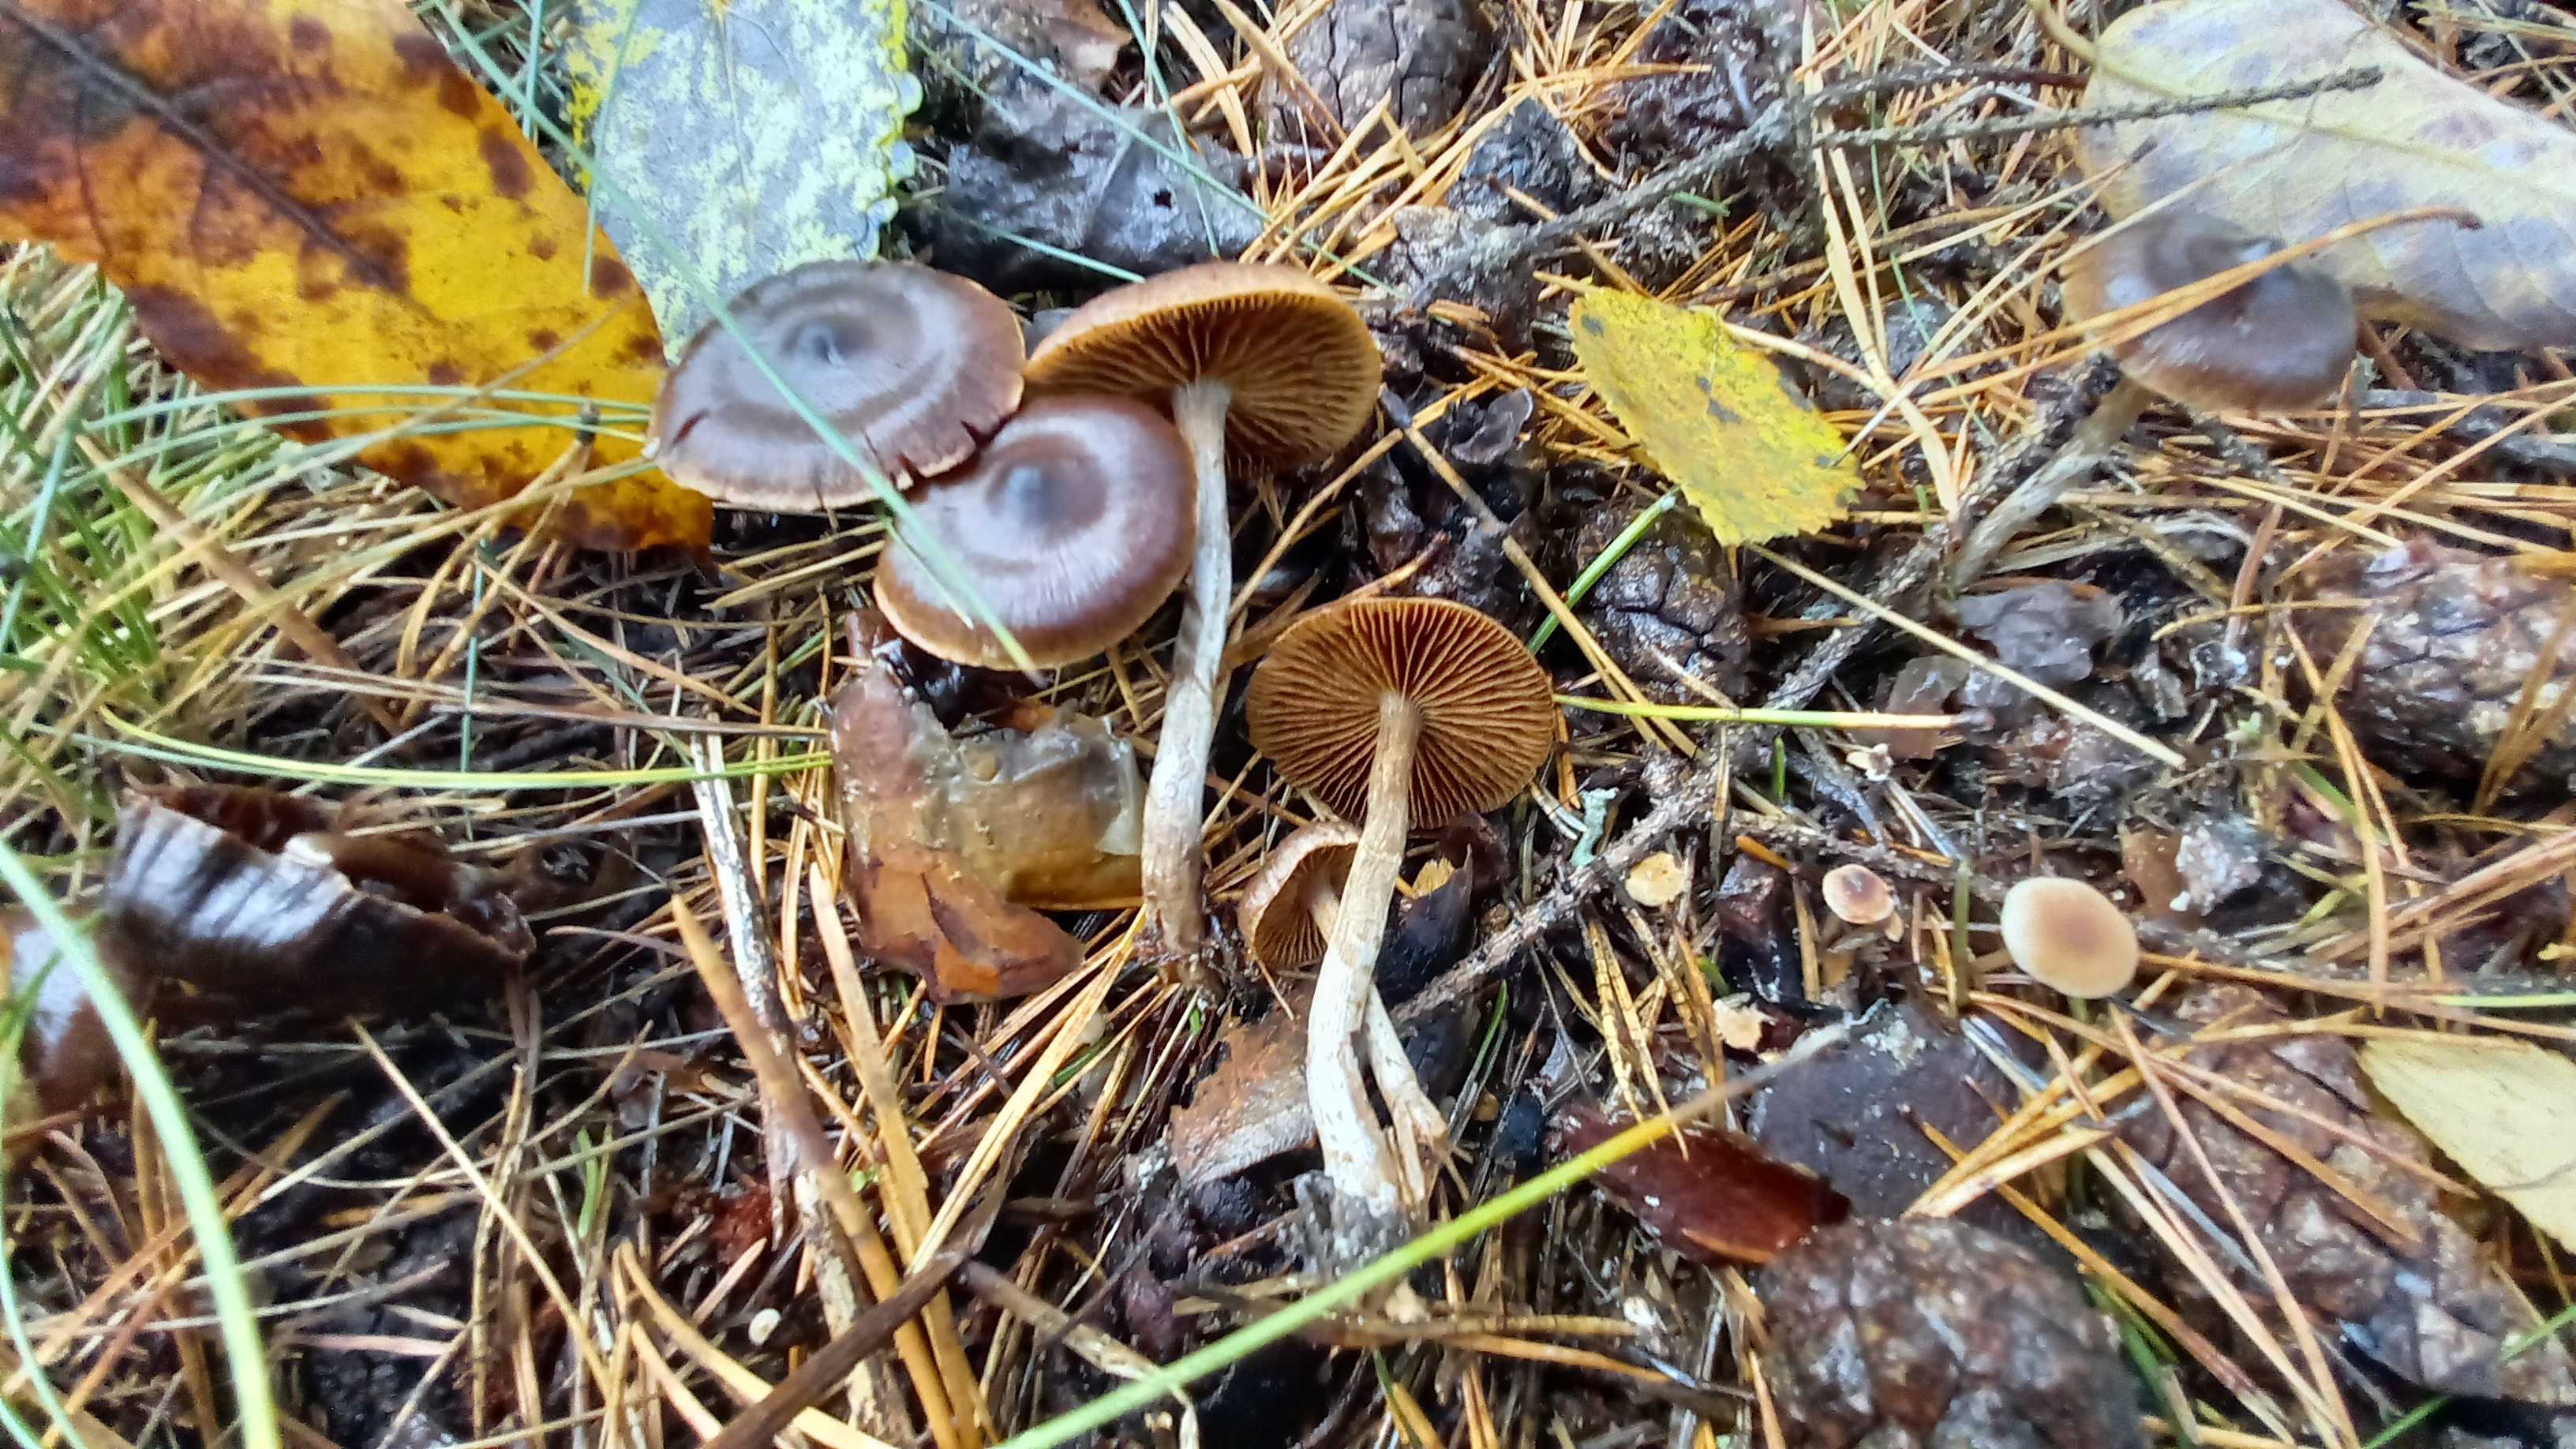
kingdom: Fungi
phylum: Basidiomycota
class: Agaricomycetes
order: Agaricales
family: Cortinariaceae
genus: Cortinarius
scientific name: Cortinarius
